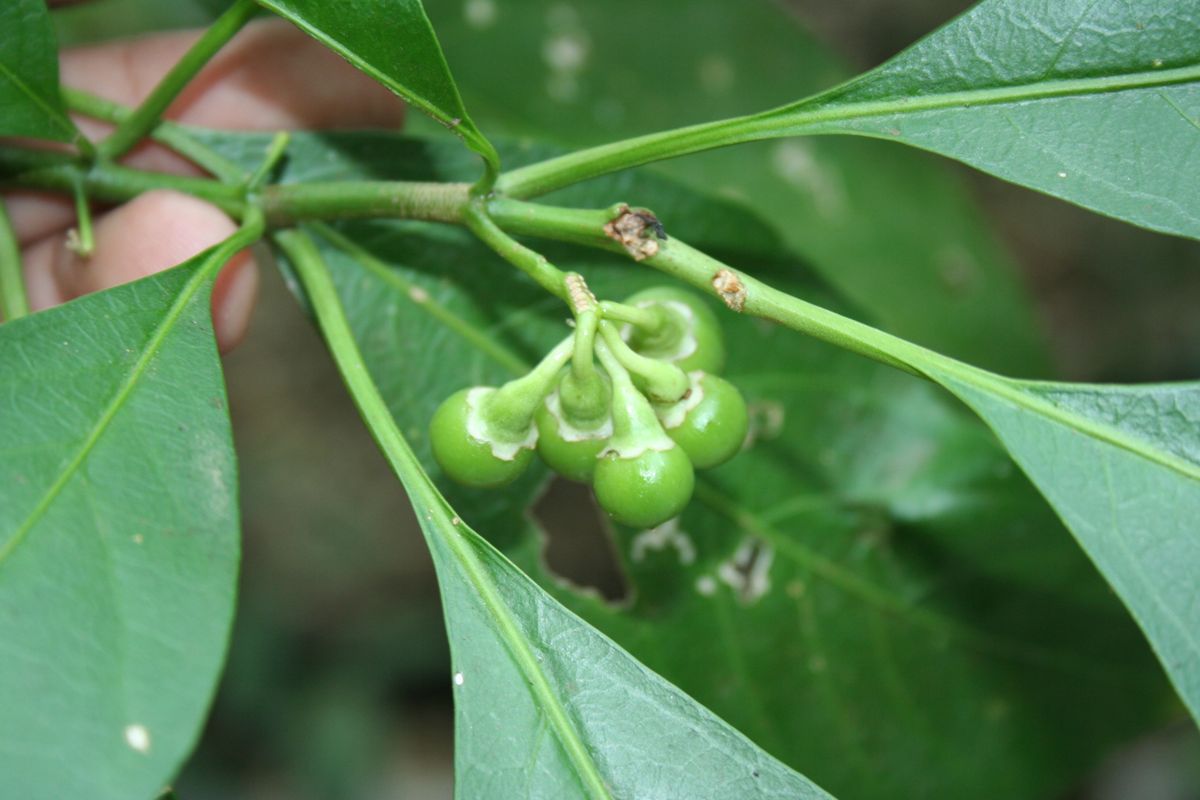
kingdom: Plantae
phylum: Tracheophyta
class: Magnoliopsida
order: Solanales
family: Solanaceae
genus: Solanum
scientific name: Solanum nudum
